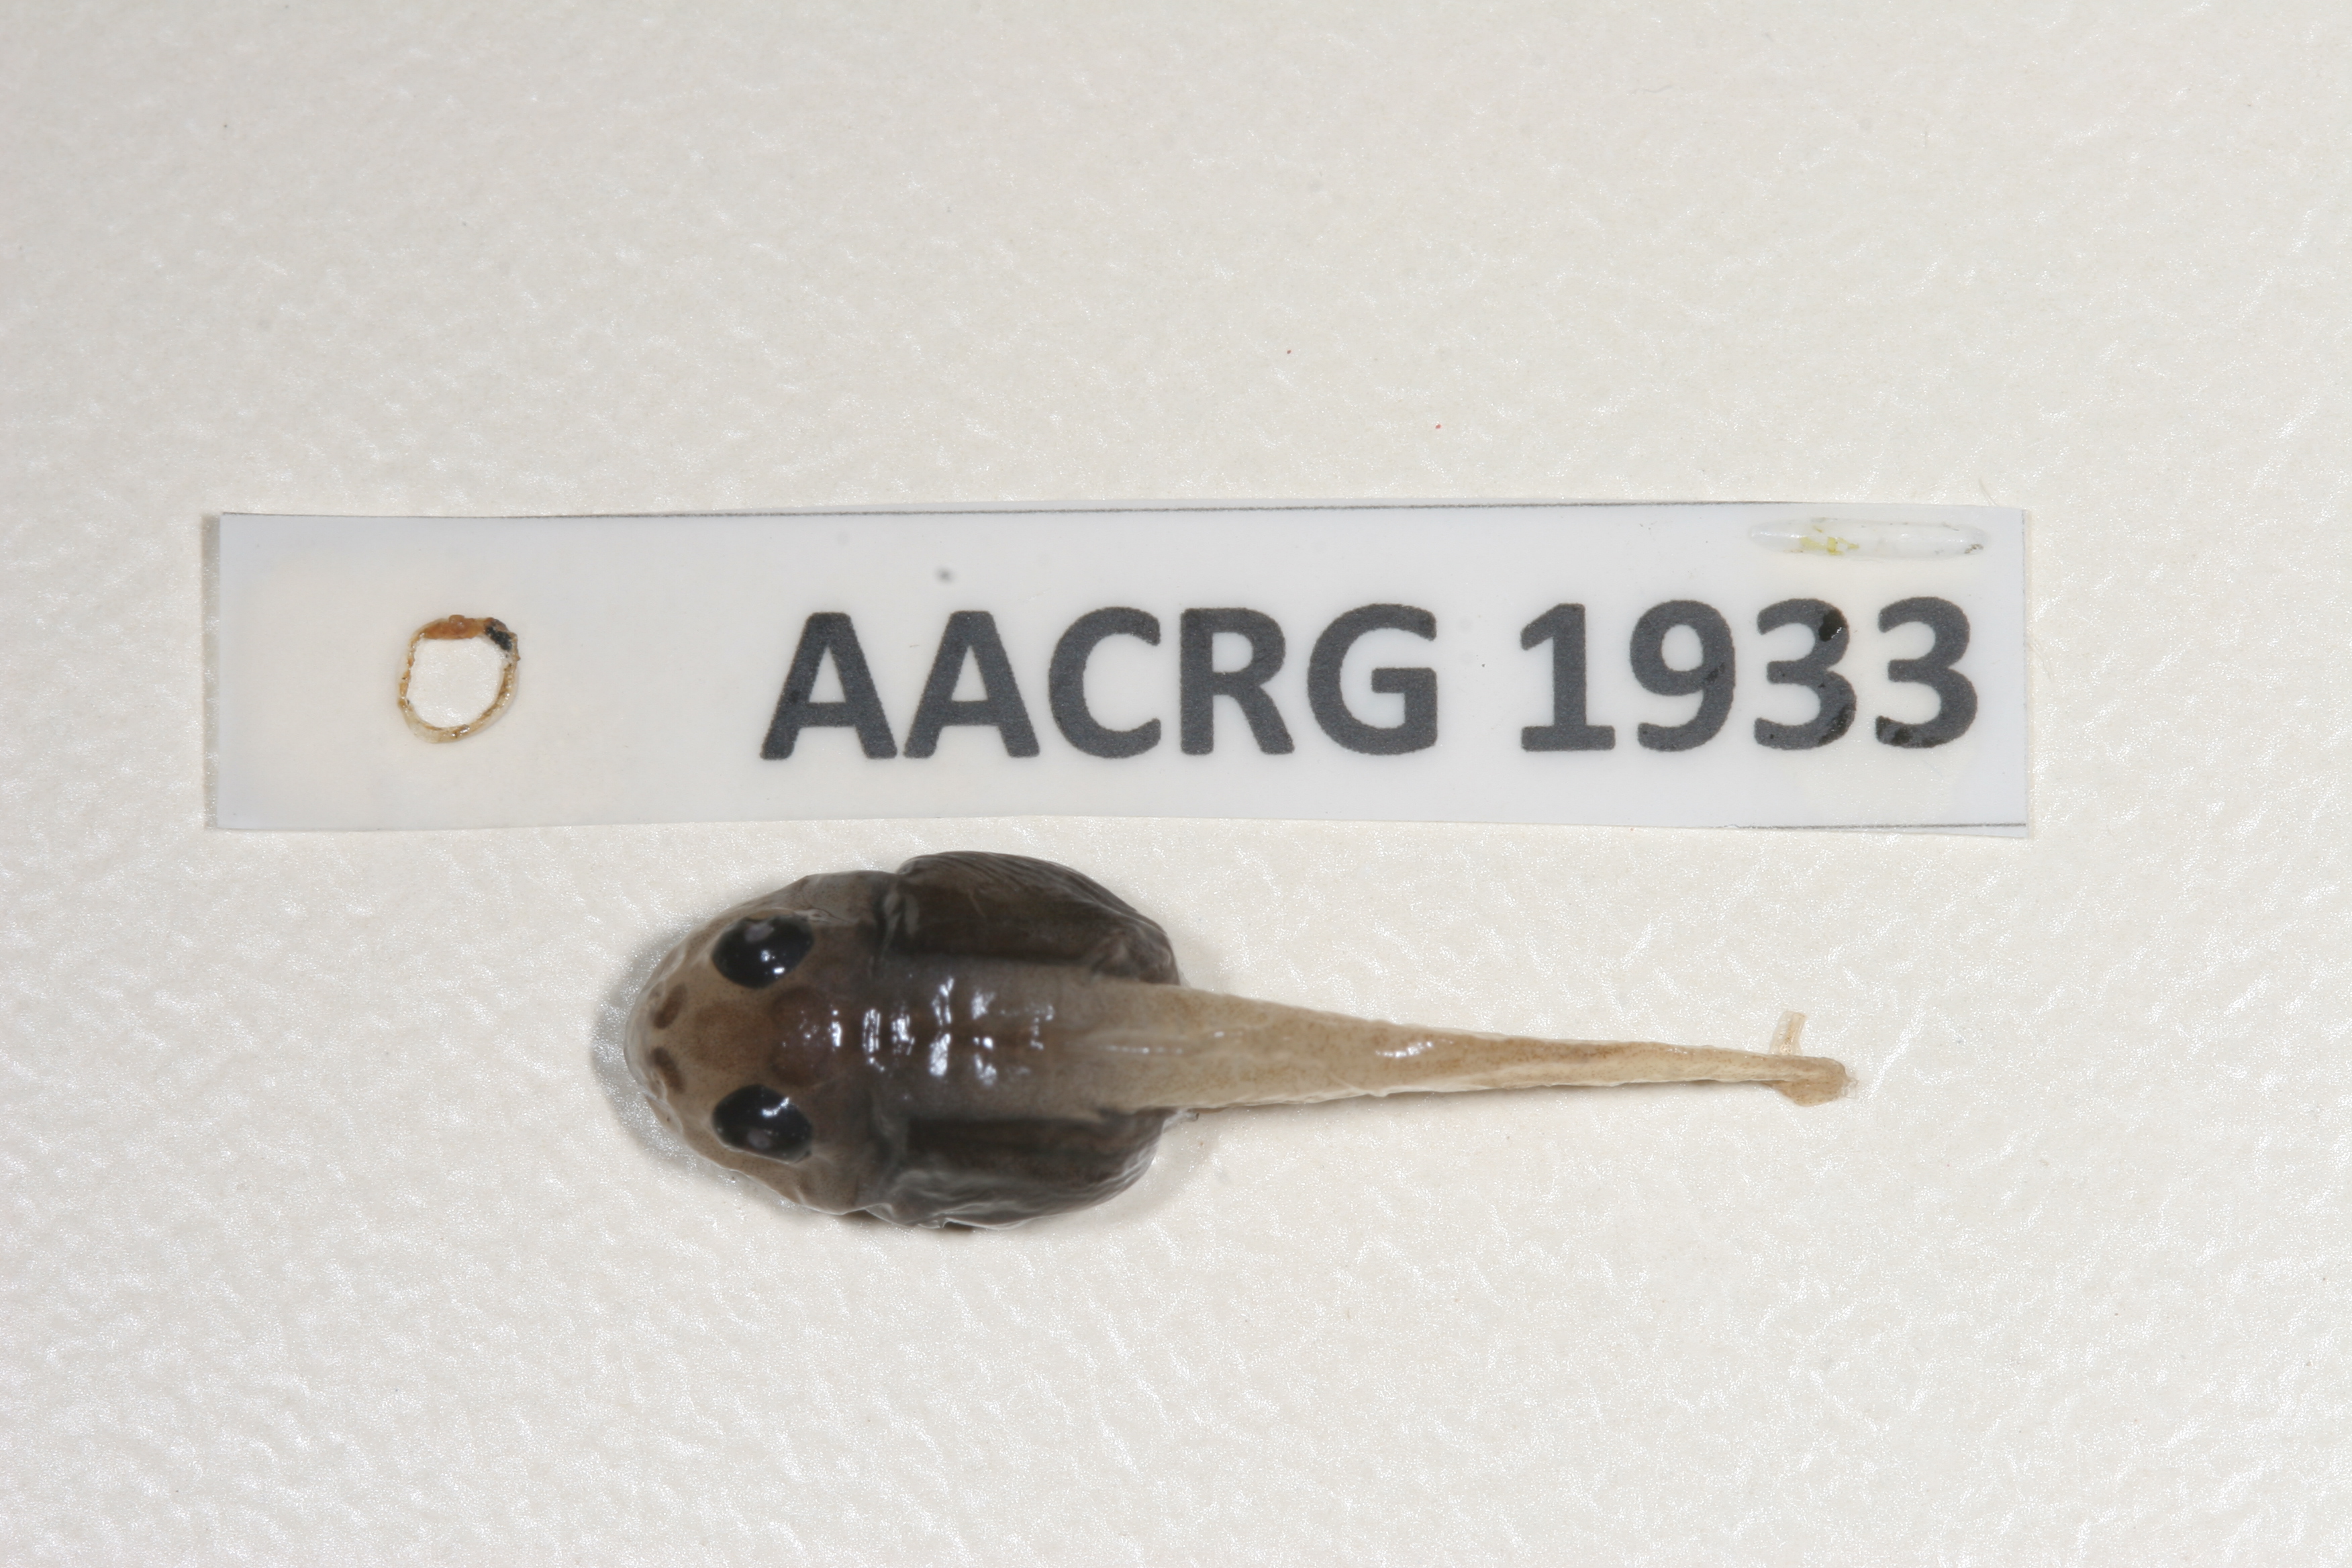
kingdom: Animalia
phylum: Chordata
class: Amphibia
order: Anura
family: Rhacophoridae
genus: Chiromantis
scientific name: Chiromantis xerampelina
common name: African gray treefrog
